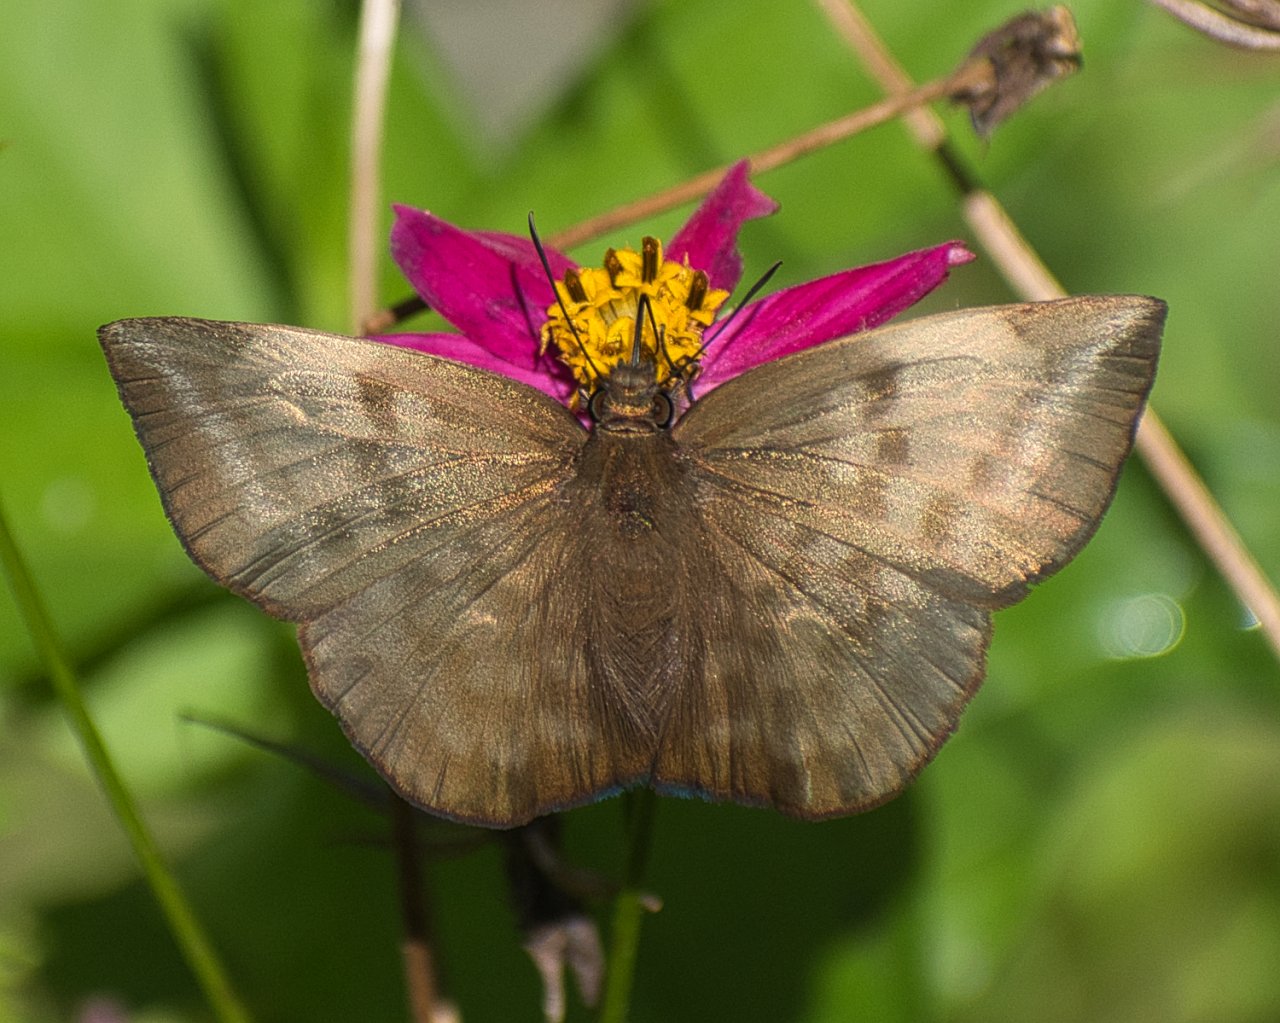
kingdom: Animalia
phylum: Arthropoda
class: Insecta
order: Lepidoptera
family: Hesperiidae
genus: Achlyodes
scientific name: Achlyodes pallida
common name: Pale Sicklewing
